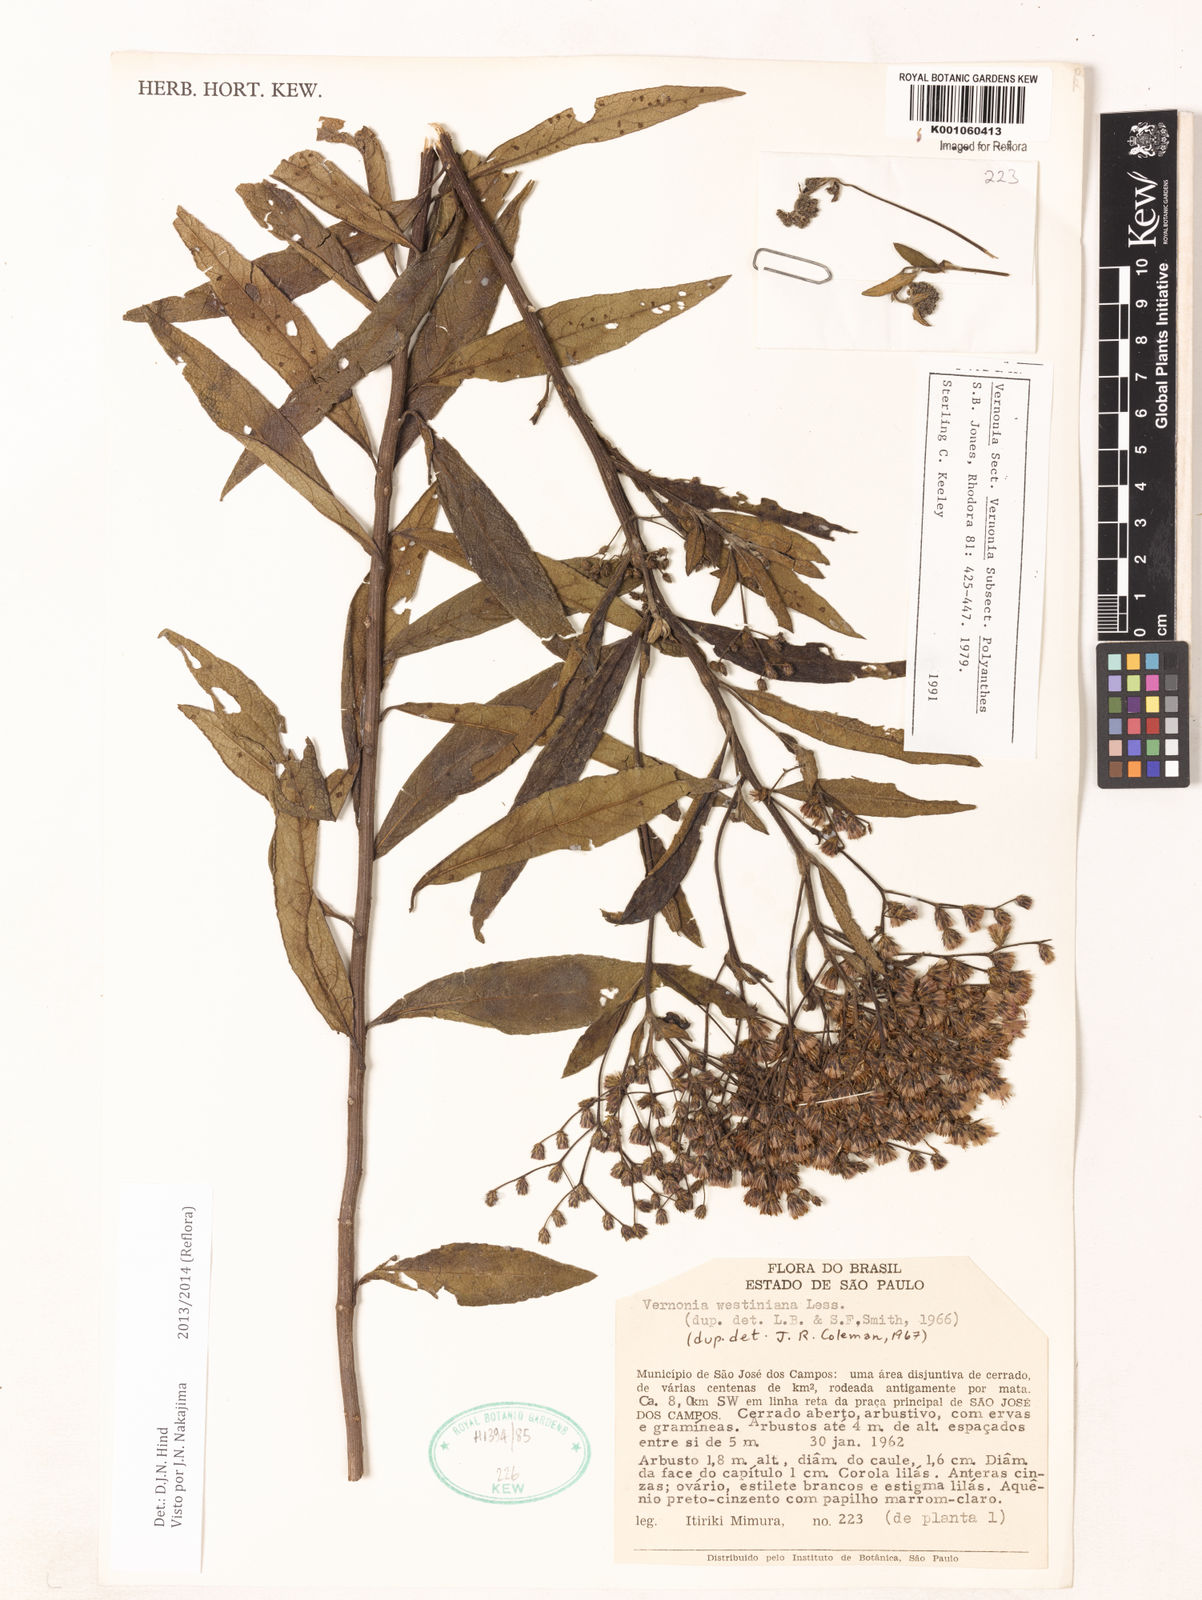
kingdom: Plantae
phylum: Tracheophyta
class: Magnoliopsida
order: Asterales
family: Asteraceae
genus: Vernonanthura
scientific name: Vernonanthura westiniana
